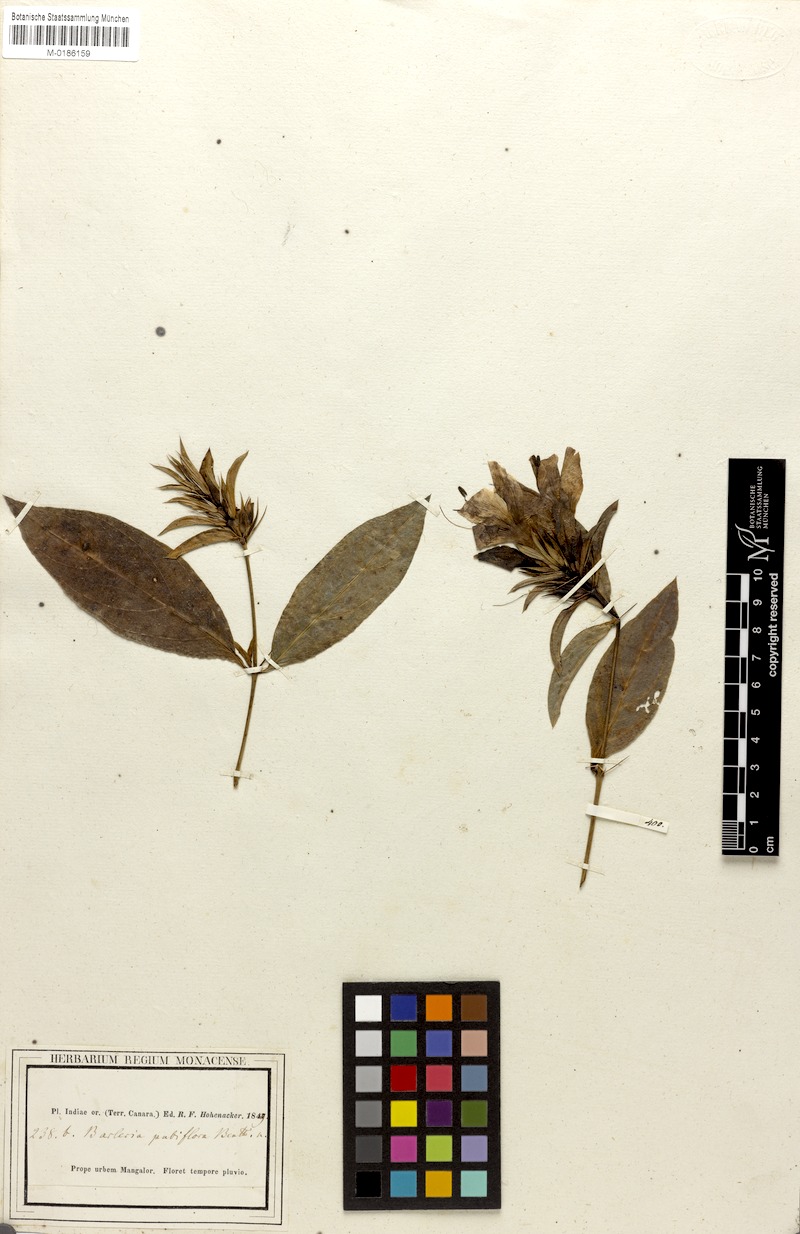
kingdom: Plantae
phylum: Tracheophyta
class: Magnoliopsida
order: Lamiales
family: Acanthaceae
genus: Barleria
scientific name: Barleria prionitis
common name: Barleria
